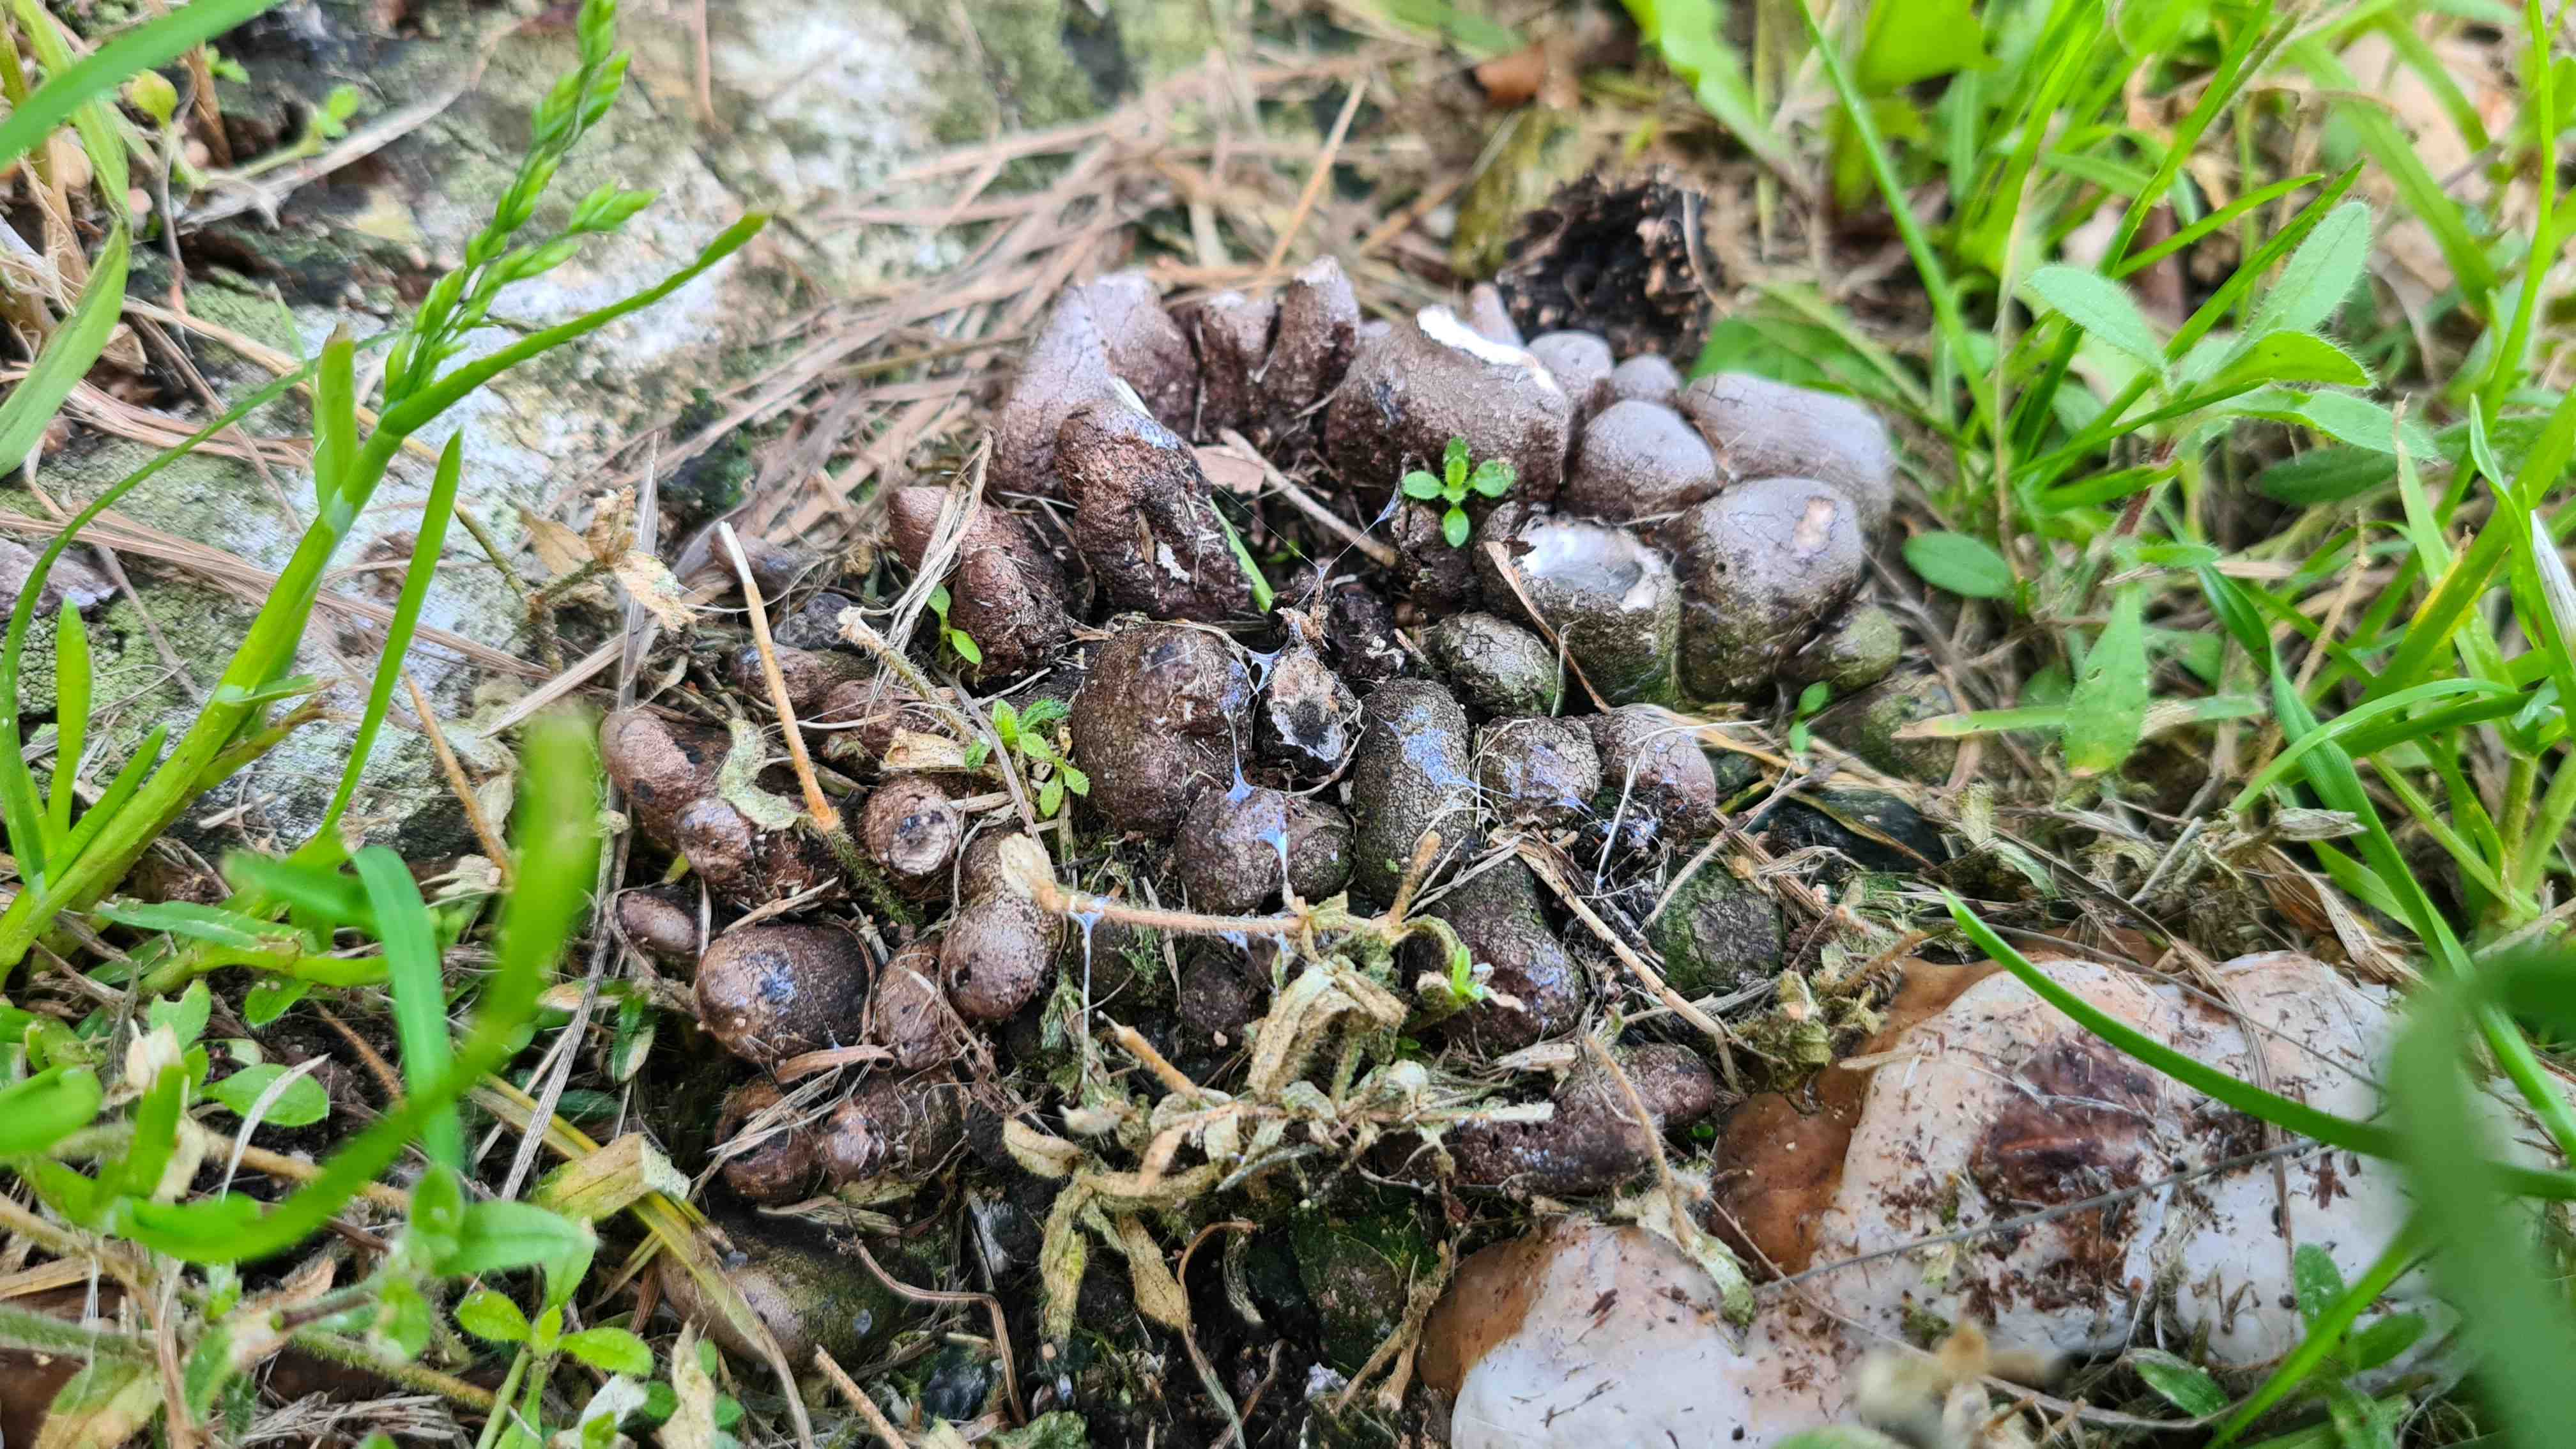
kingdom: Fungi
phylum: Ascomycota
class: Sordariomycetes
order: Xylariales
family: Xylariaceae
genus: Xylaria
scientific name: Xylaria polymorpha
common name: kølle-stødsvamp
